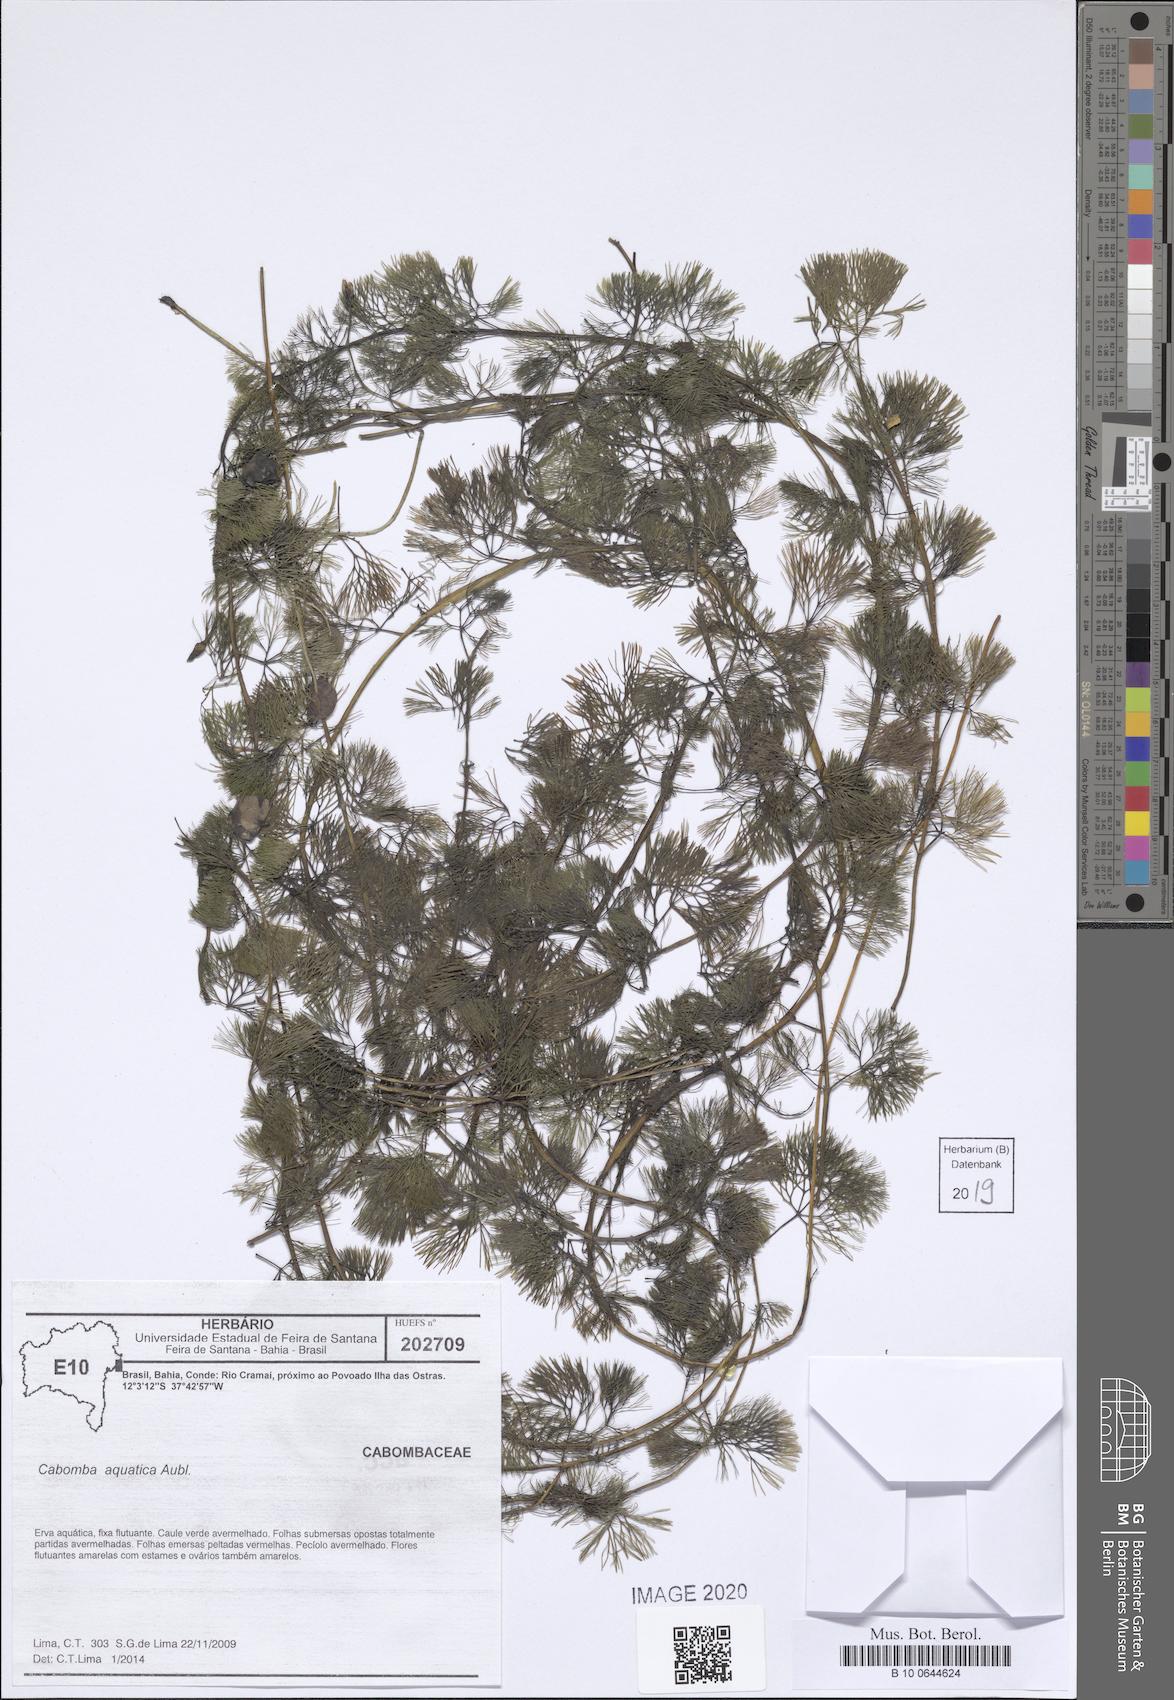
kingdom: Plantae
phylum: Tracheophyta
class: Magnoliopsida
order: Nymphaeales
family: Cabombaceae
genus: Cabomba
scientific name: Cabomba aquatica
